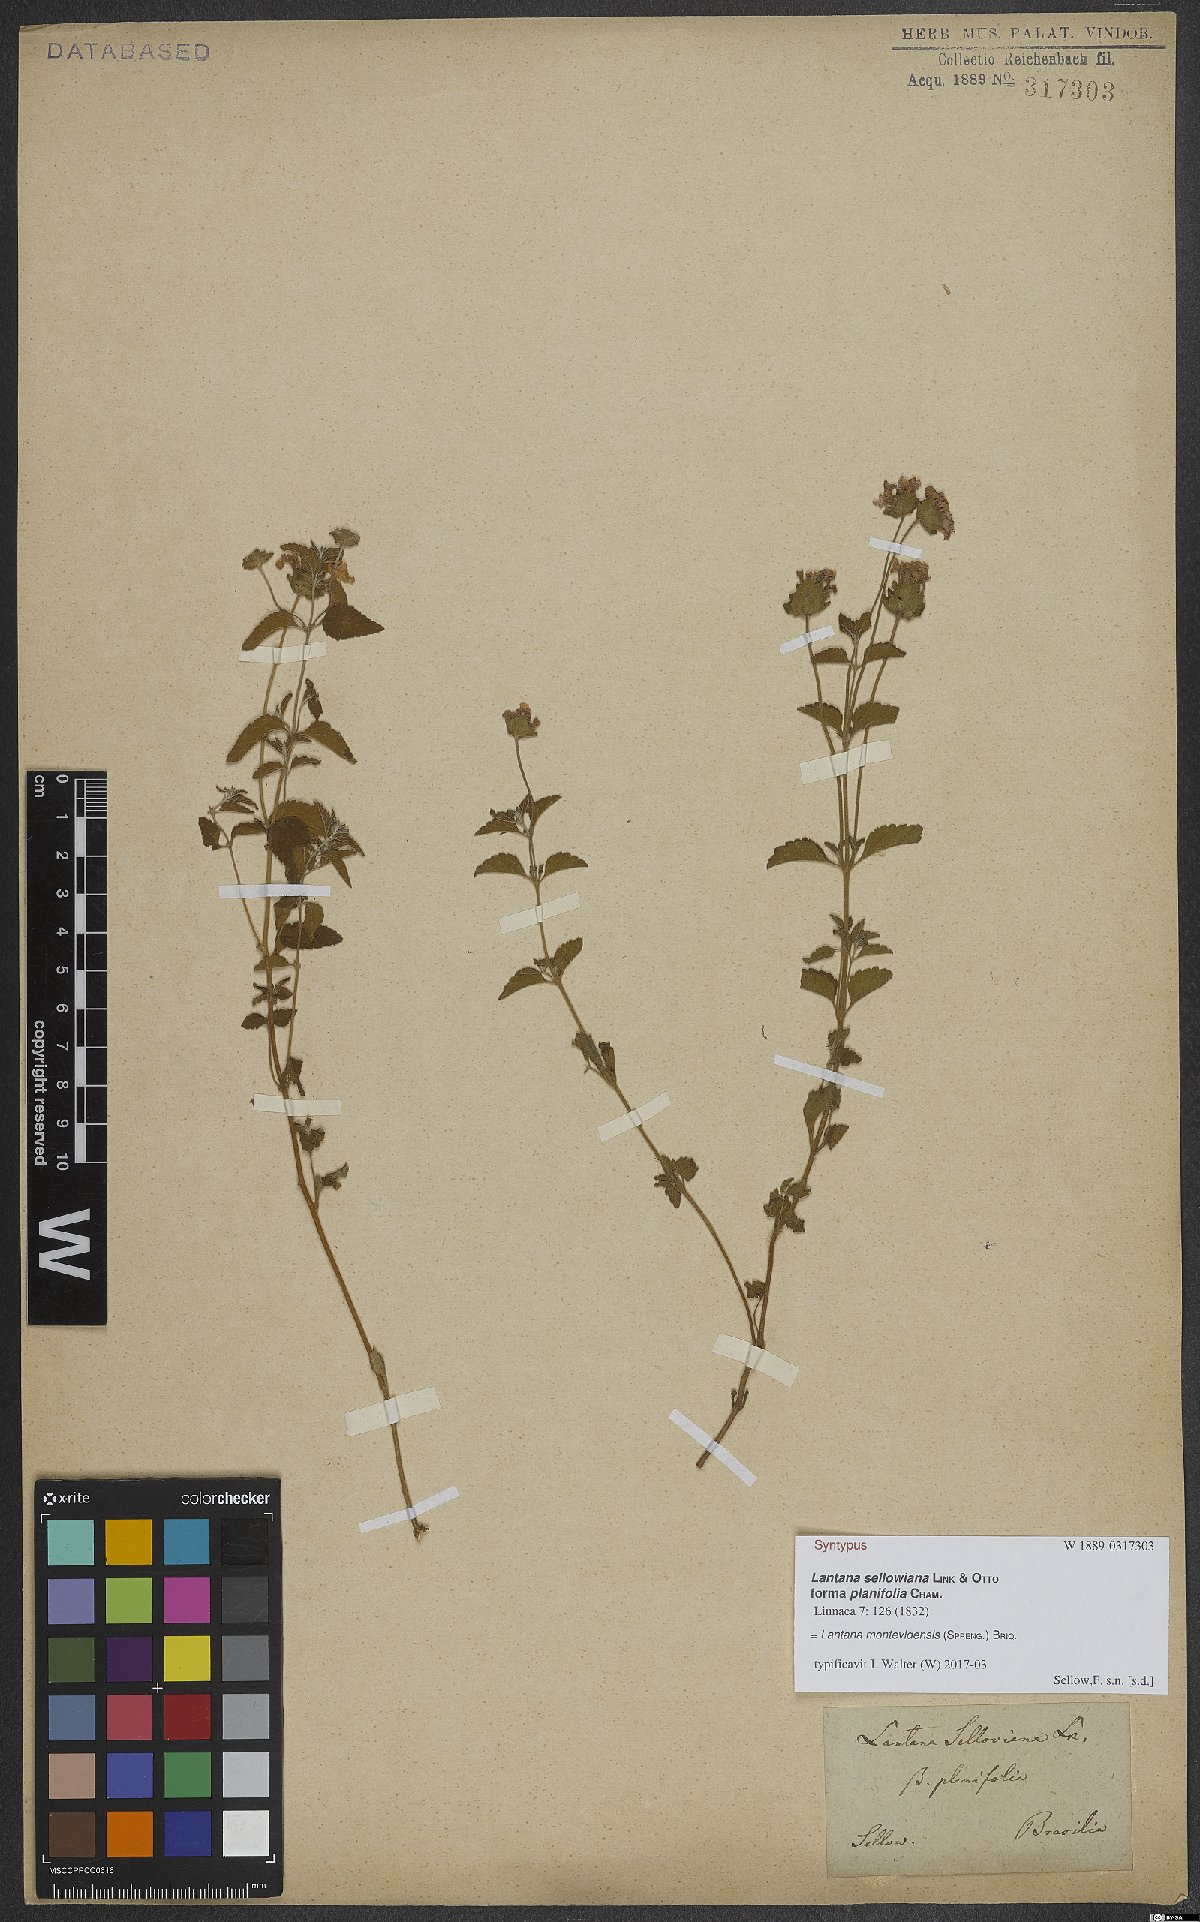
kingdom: Plantae
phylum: Tracheophyta
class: Magnoliopsida
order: Lamiales
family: Verbenaceae
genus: Lantana
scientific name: Lantana montevidensis
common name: Trailing shrubverbena
